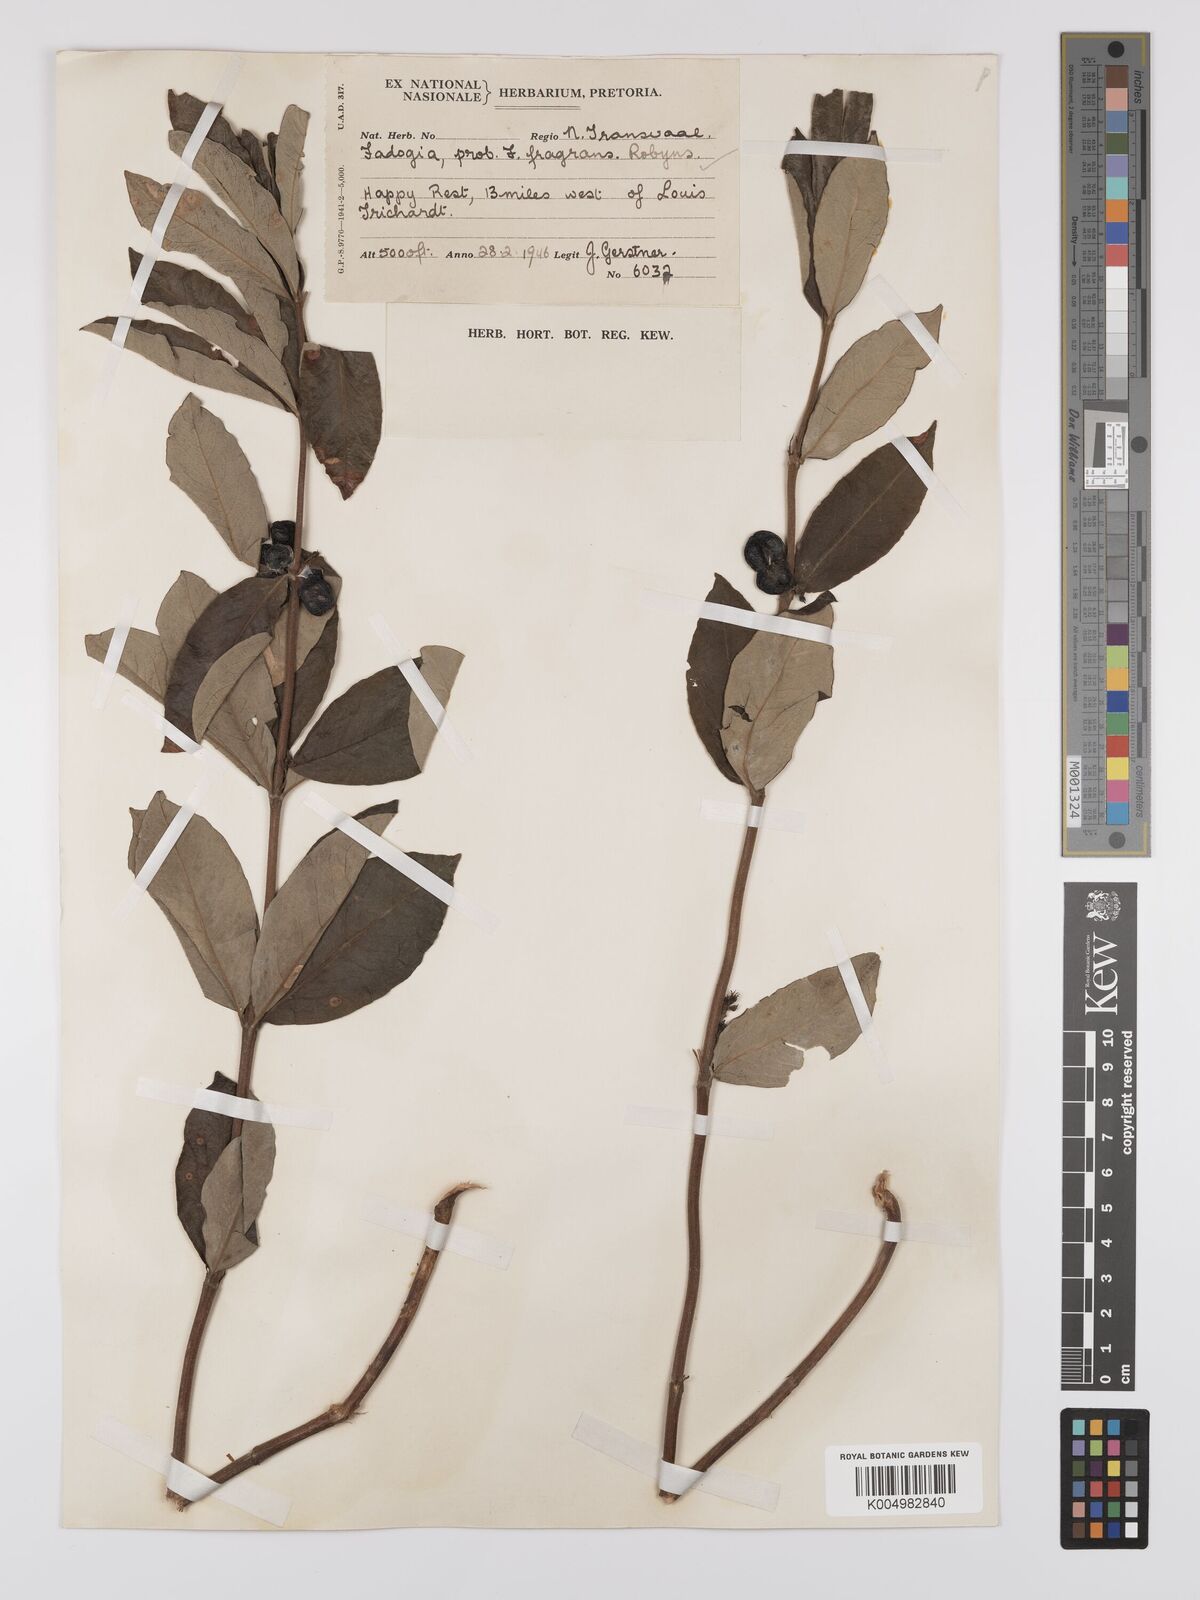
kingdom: Plantae
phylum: Tracheophyta
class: Magnoliopsida
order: Gentianales
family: Rubiaceae
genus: Fadogia
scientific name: Fadogia triphylla
